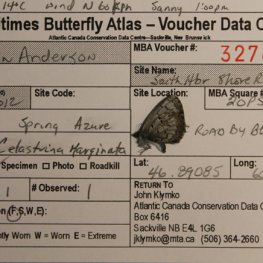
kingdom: Animalia
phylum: Arthropoda
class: Insecta
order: Lepidoptera
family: Lycaenidae
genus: Celastrina
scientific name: Celastrina lucia
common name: Northern Spring Azure
